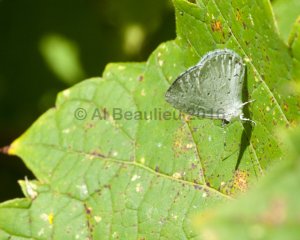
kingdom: Animalia
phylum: Arthropoda
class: Insecta
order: Lepidoptera
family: Lycaenidae
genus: Cyaniris
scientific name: Cyaniris neglecta
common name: Summer Azure
